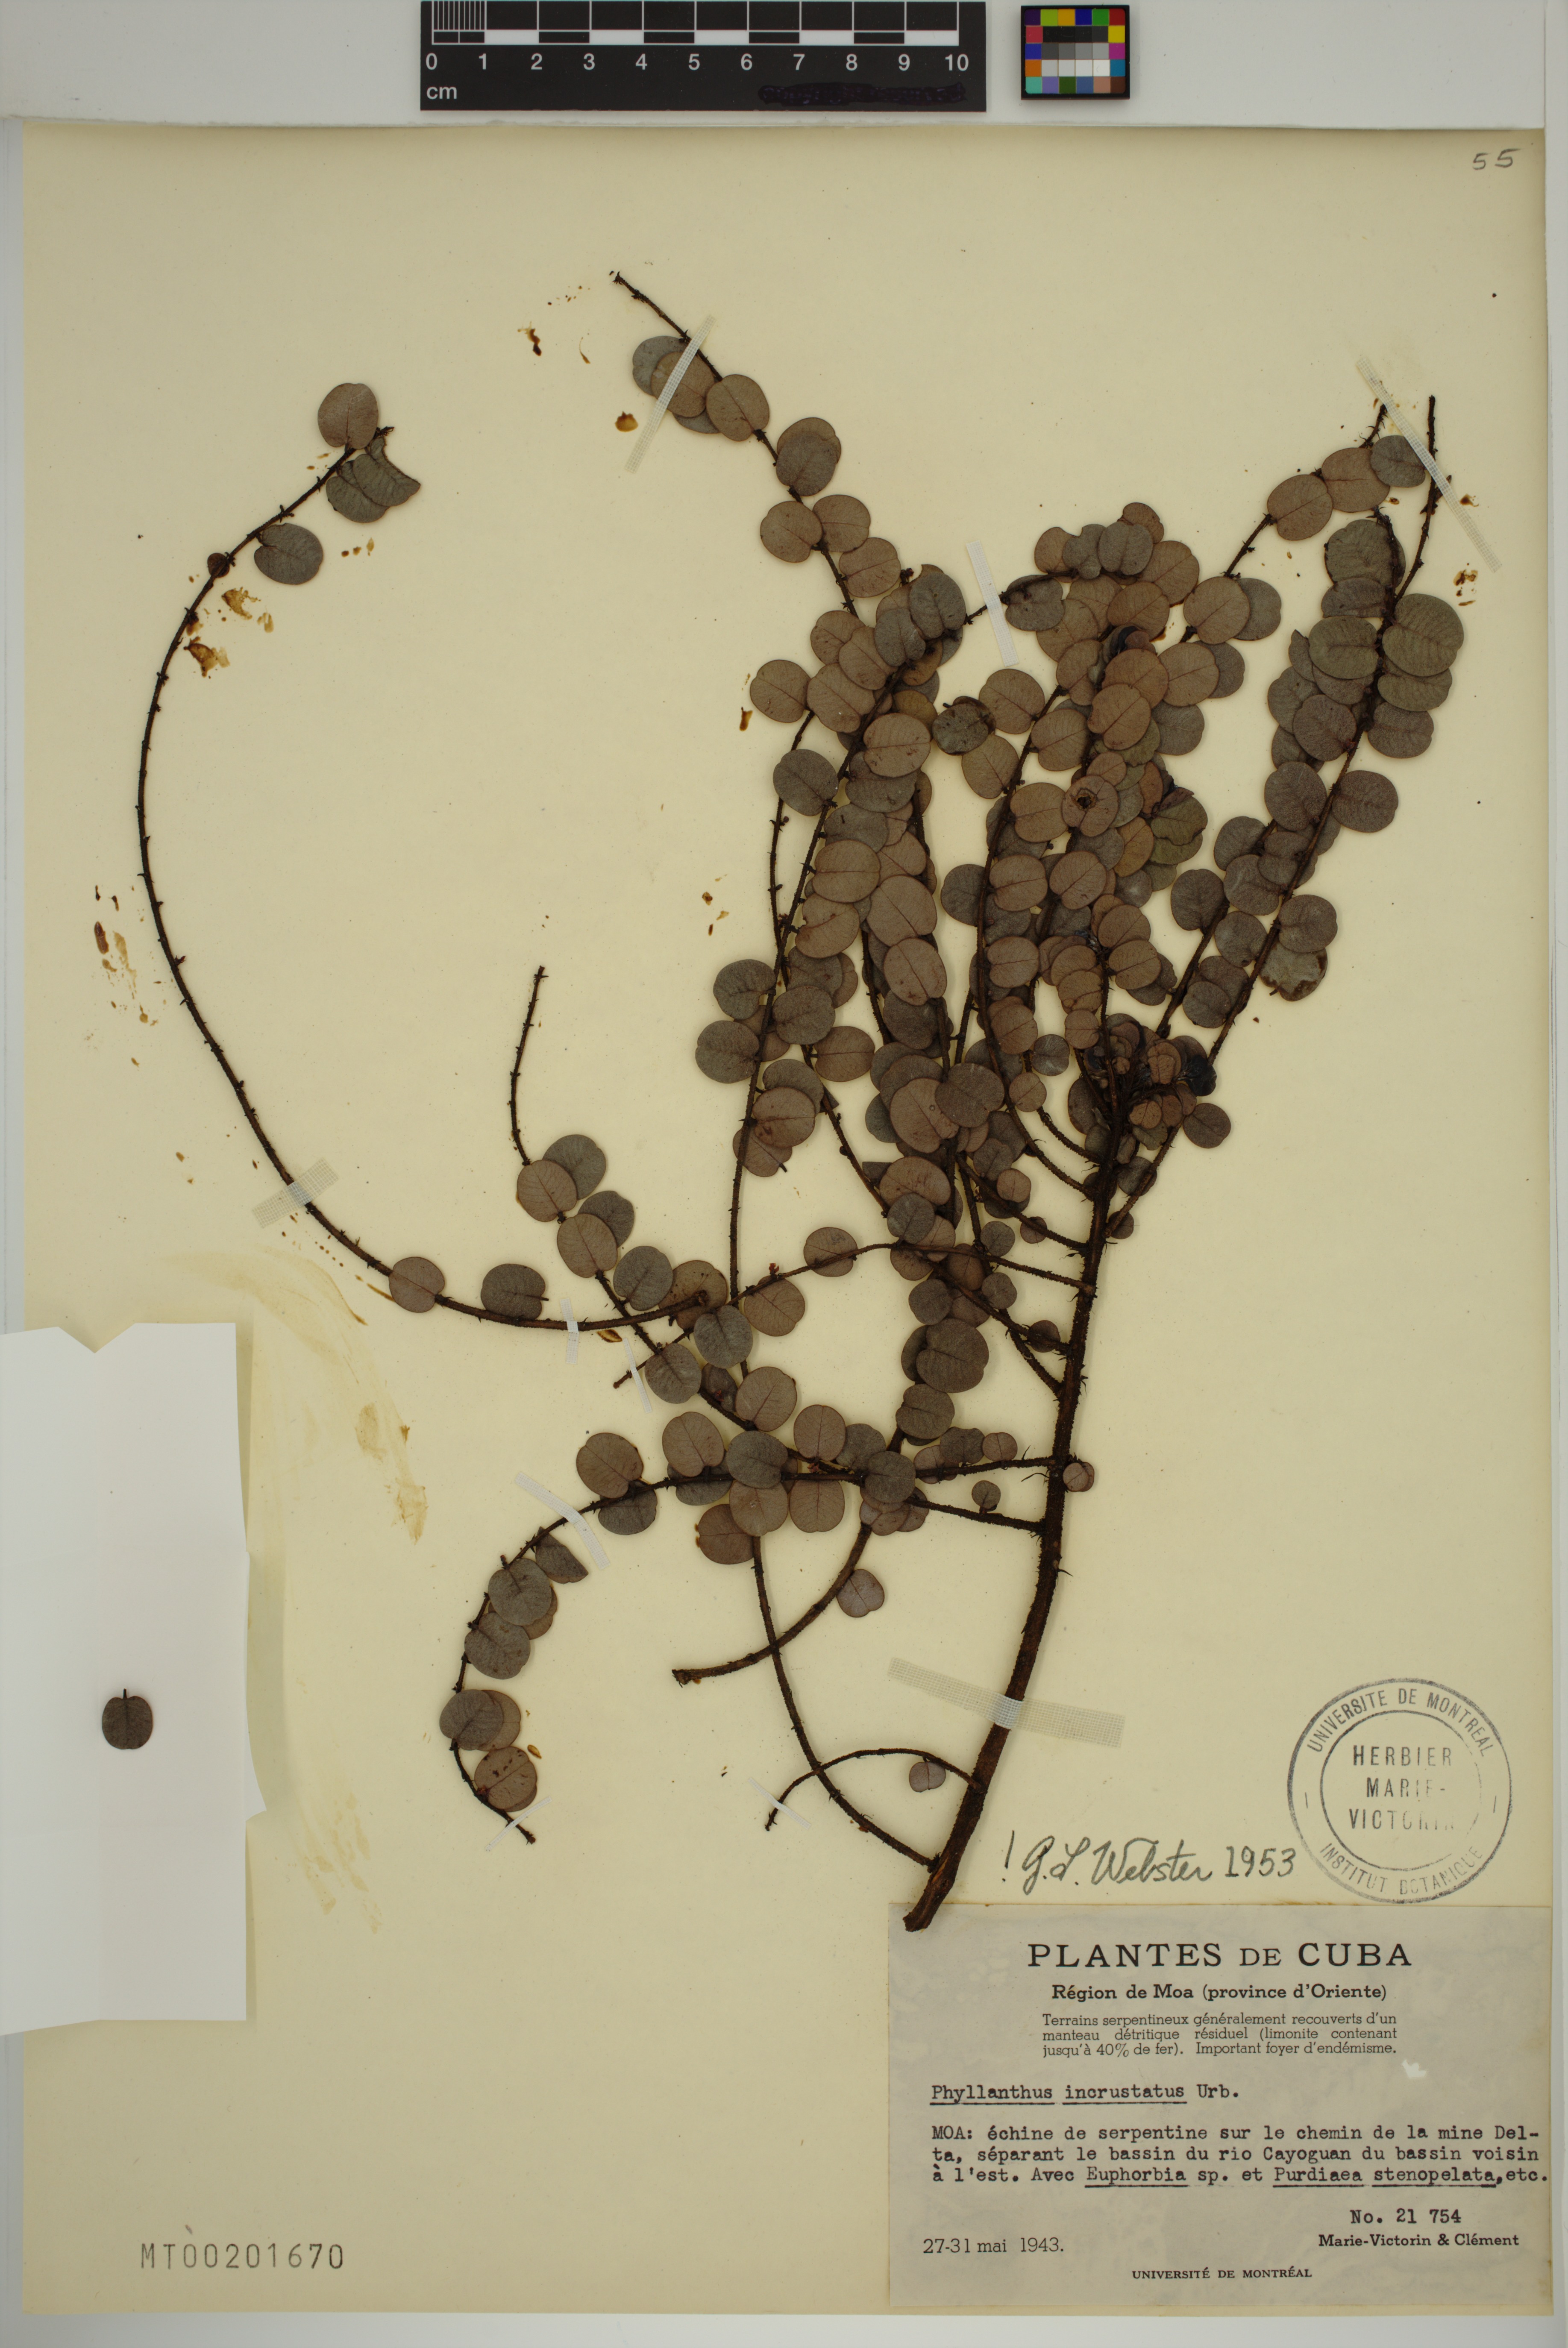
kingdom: Plantae
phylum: Tracheophyta
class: Magnoliopsida
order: Malpighiales
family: Phyllanthaceae
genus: Phyllanthus
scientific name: Phyllanthus incrustatus
